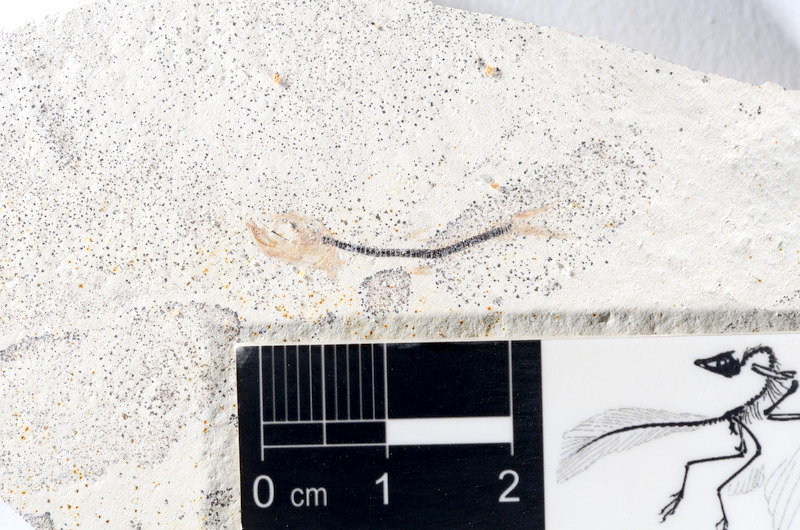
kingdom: Animalia
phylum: Chordata
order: Salmoniformes
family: Orthogonikleithridae
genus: Orthogonikleithrus
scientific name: Orthogonikleithrus hoelli
